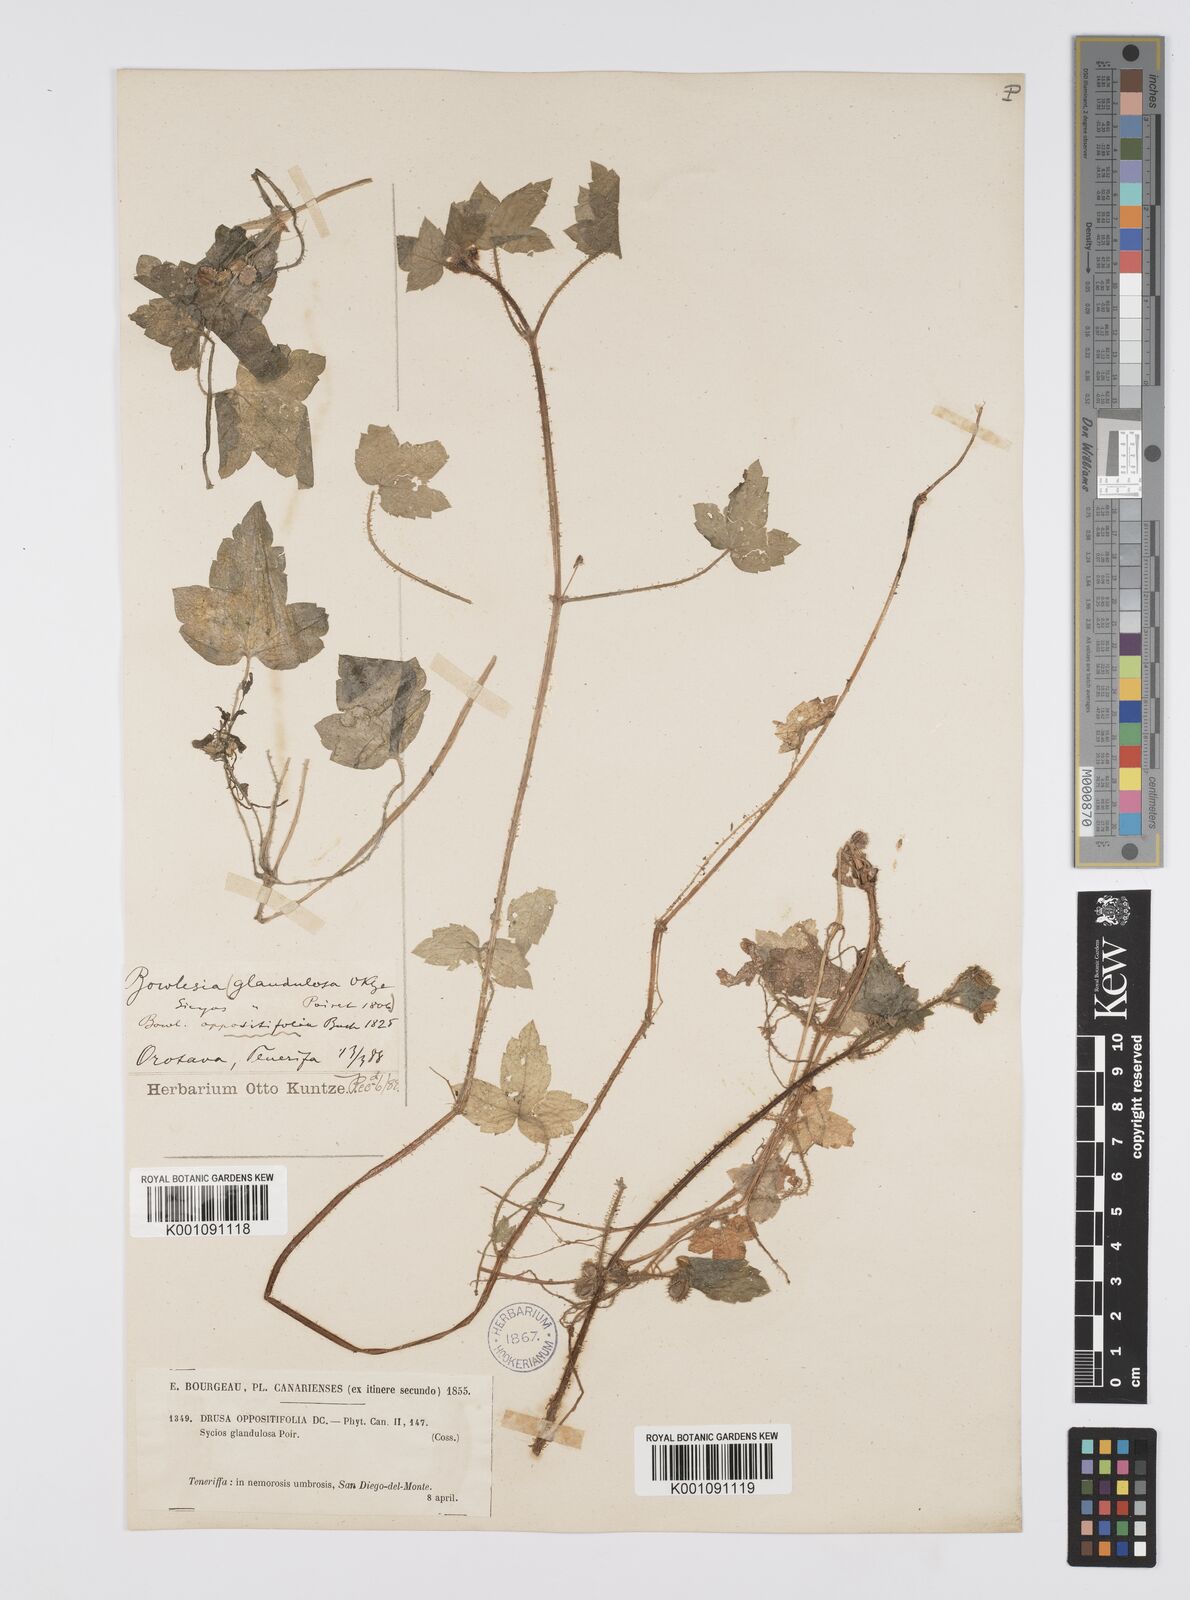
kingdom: Plantae
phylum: Tracheophyta
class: Magnoliopsida
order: Apiales
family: Apiaceae
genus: Drusa
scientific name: Drusa glandulosa
